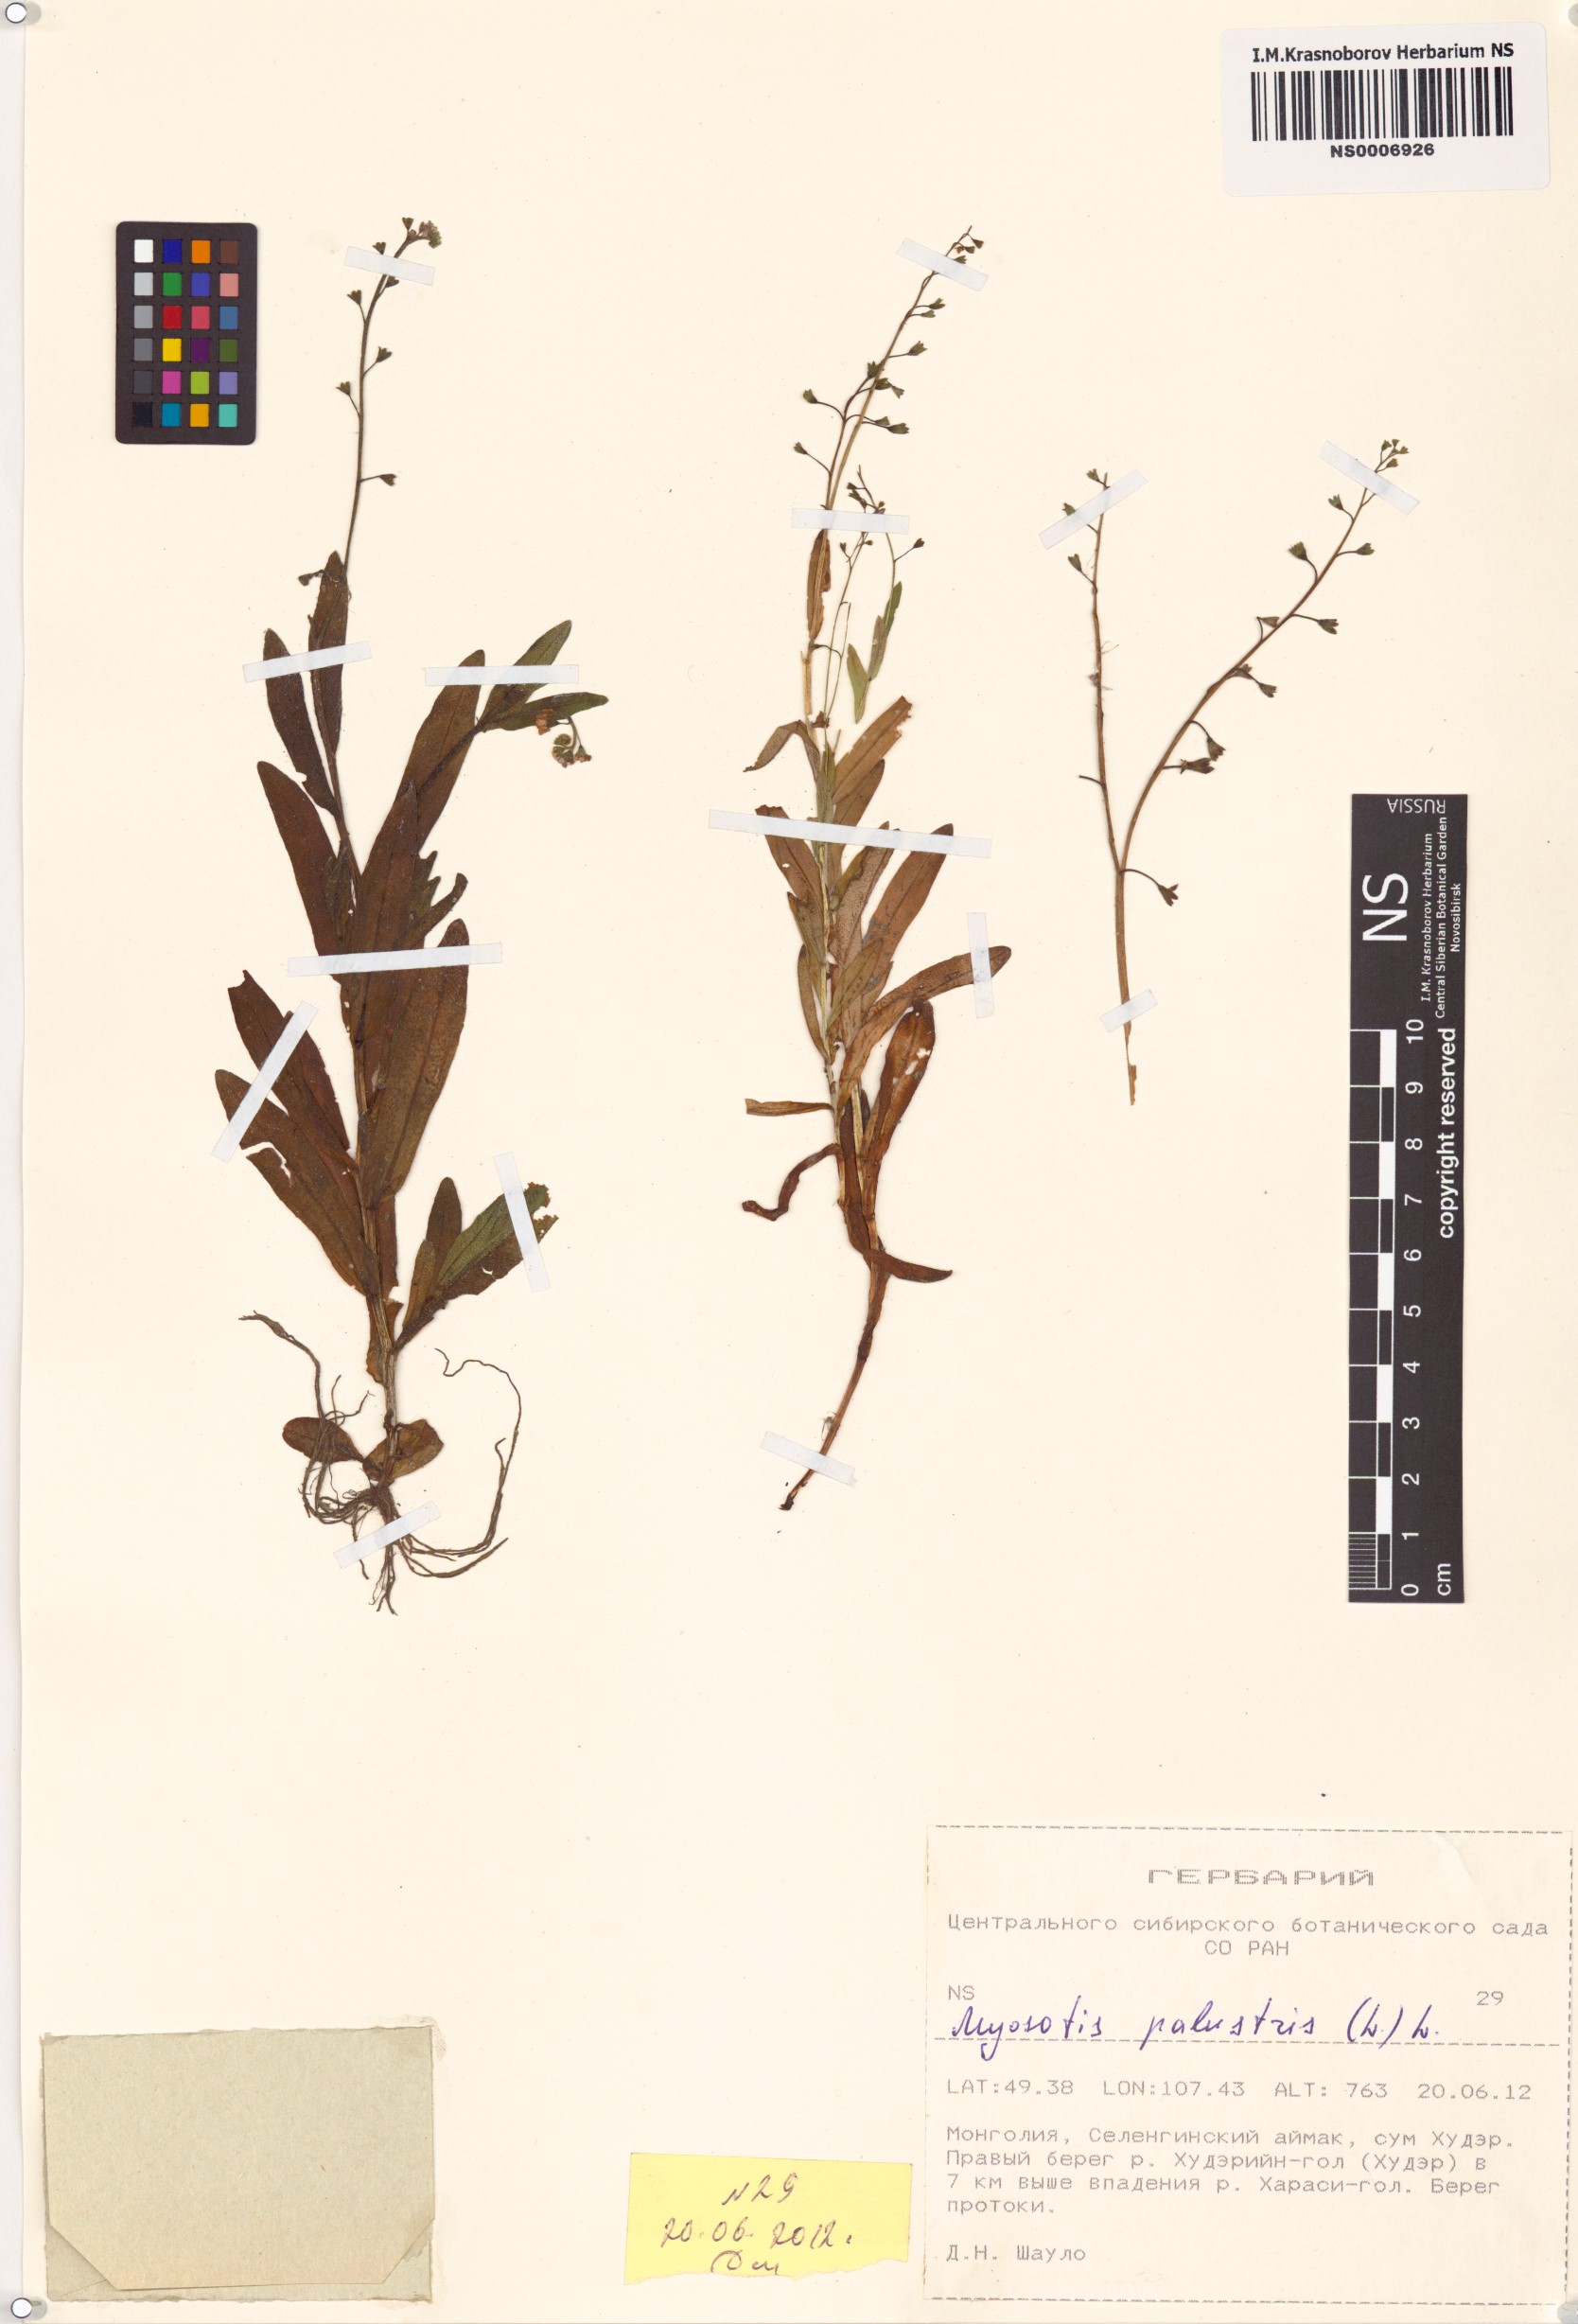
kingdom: Plantae
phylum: Tracheophyta
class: Magnoliopsida
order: Boraginales
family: Boraginaceae
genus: Myosotis
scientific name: Myosotis scorpioides
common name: Water forget-me-not
